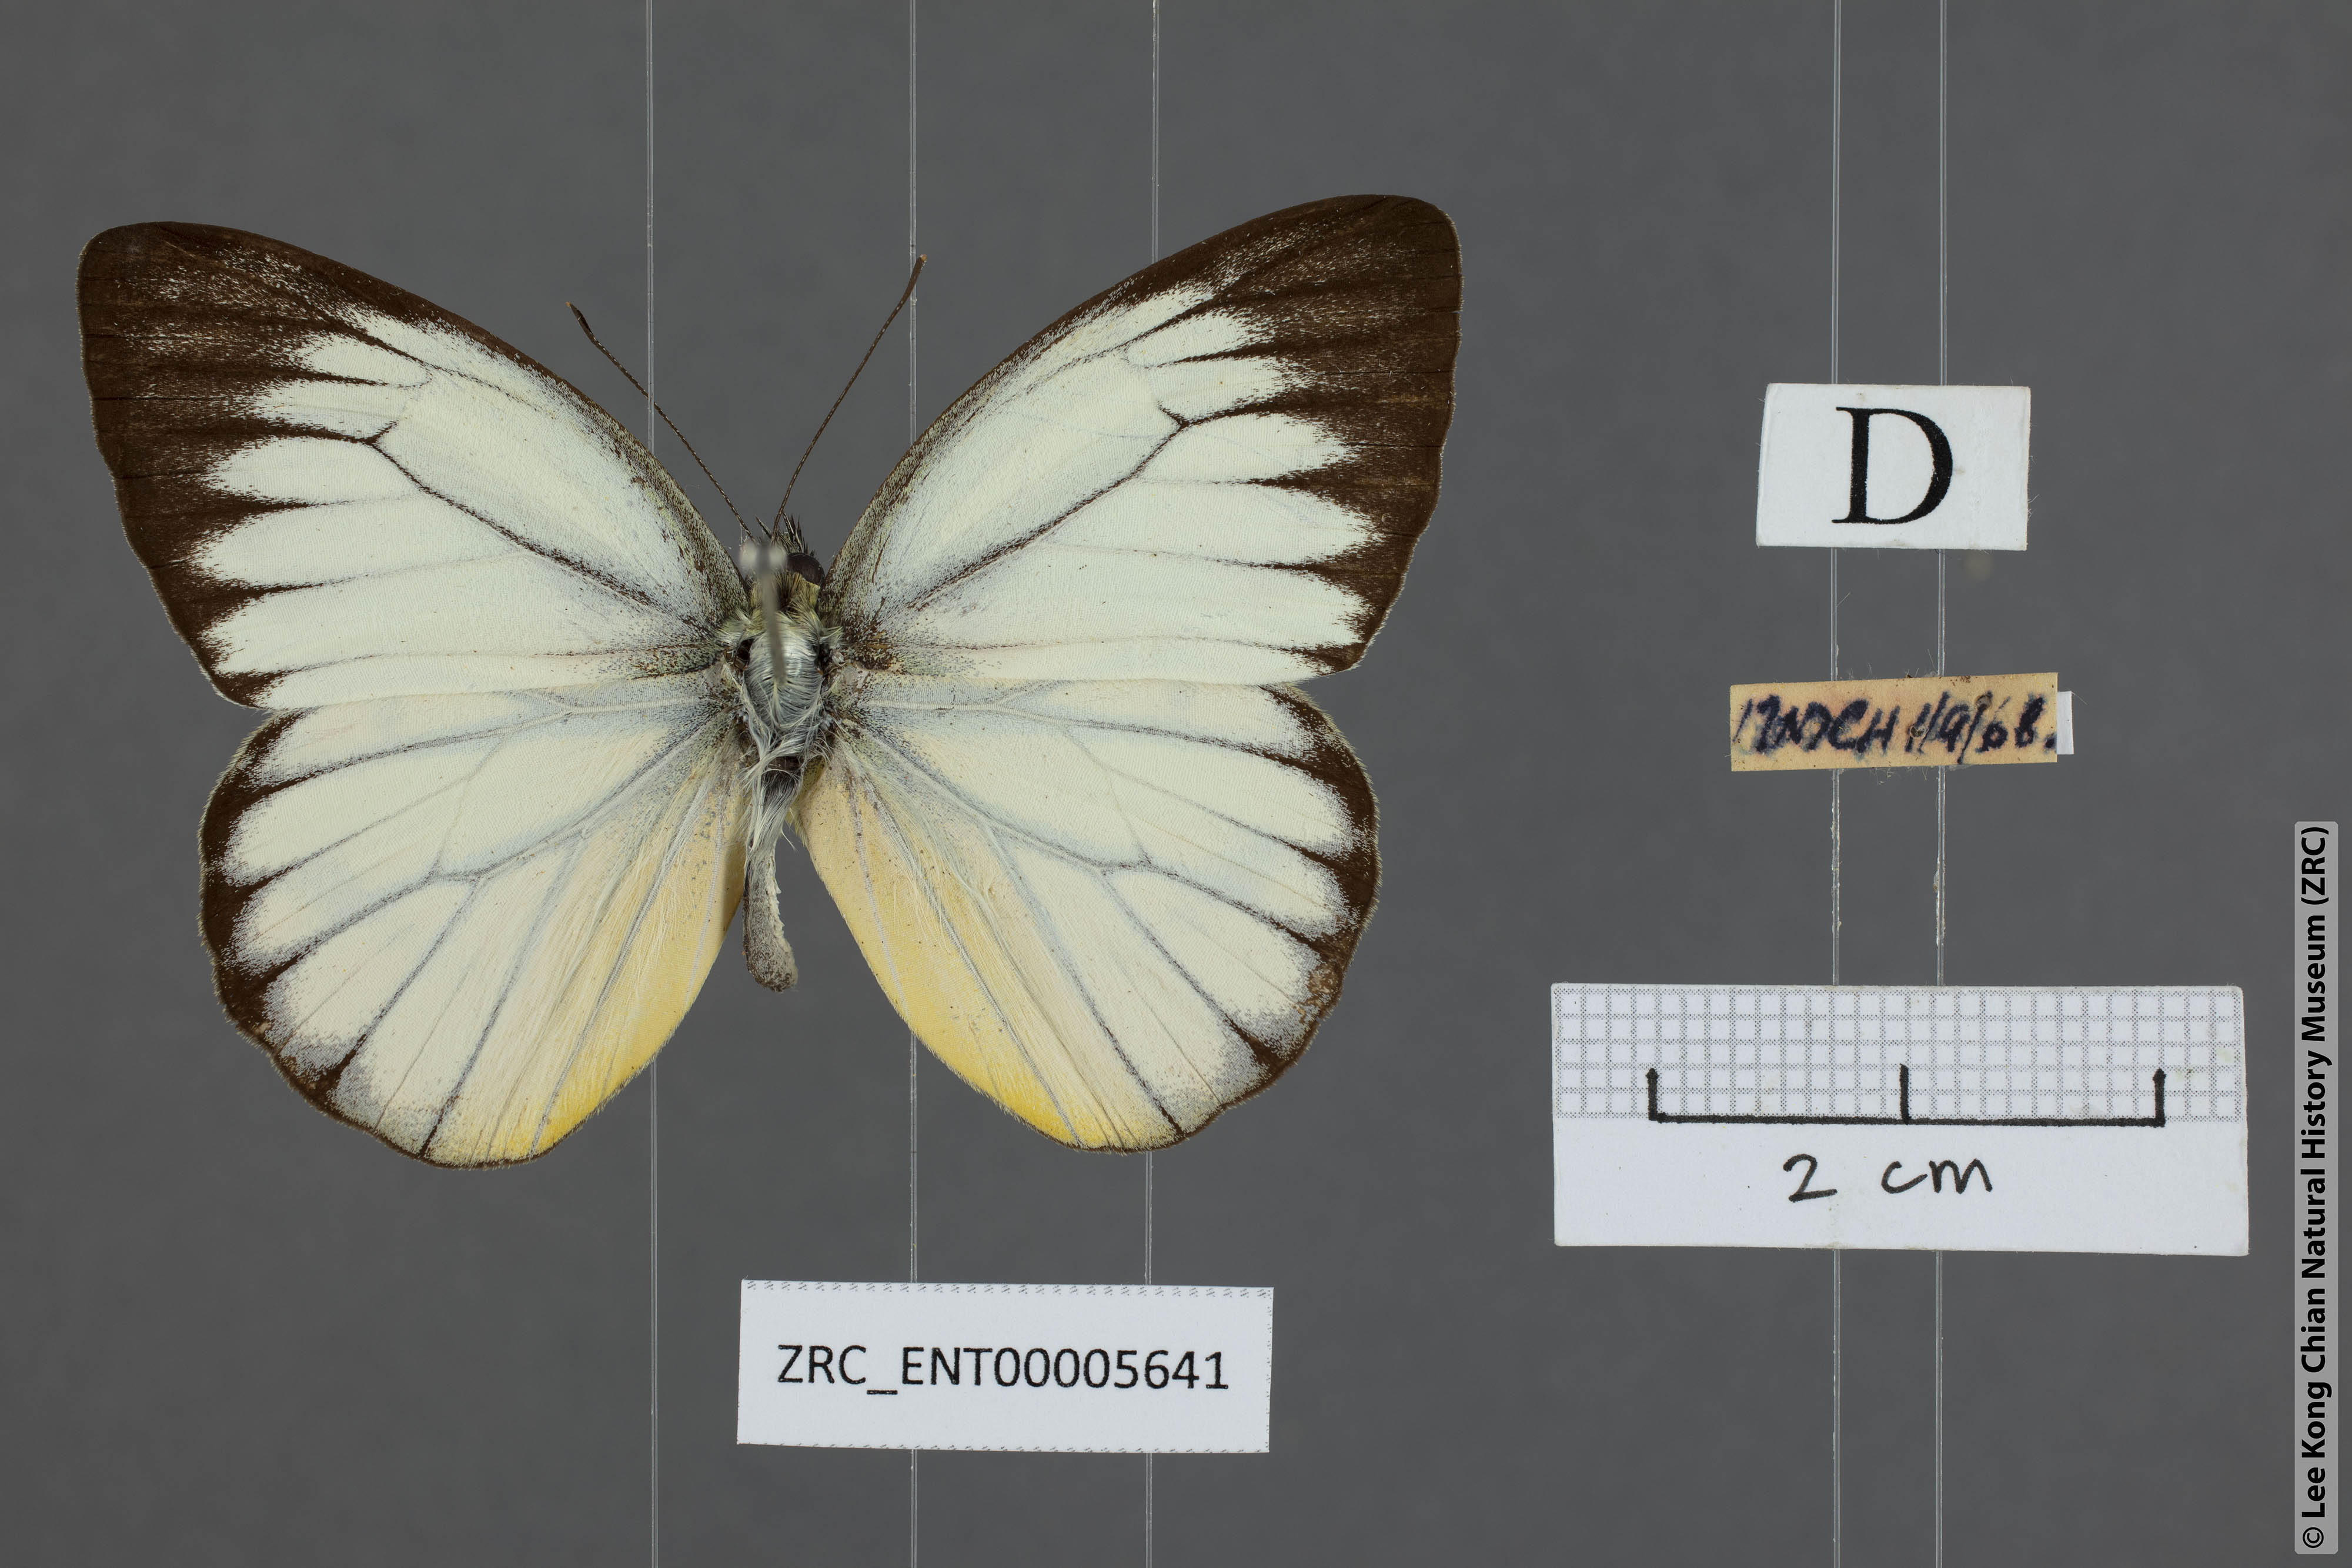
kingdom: Animalia
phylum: Arthropoda
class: Insecta
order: Lepidoptera
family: Pieridae
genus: Cepora
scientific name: Cepora nadina
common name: Lesser gull
